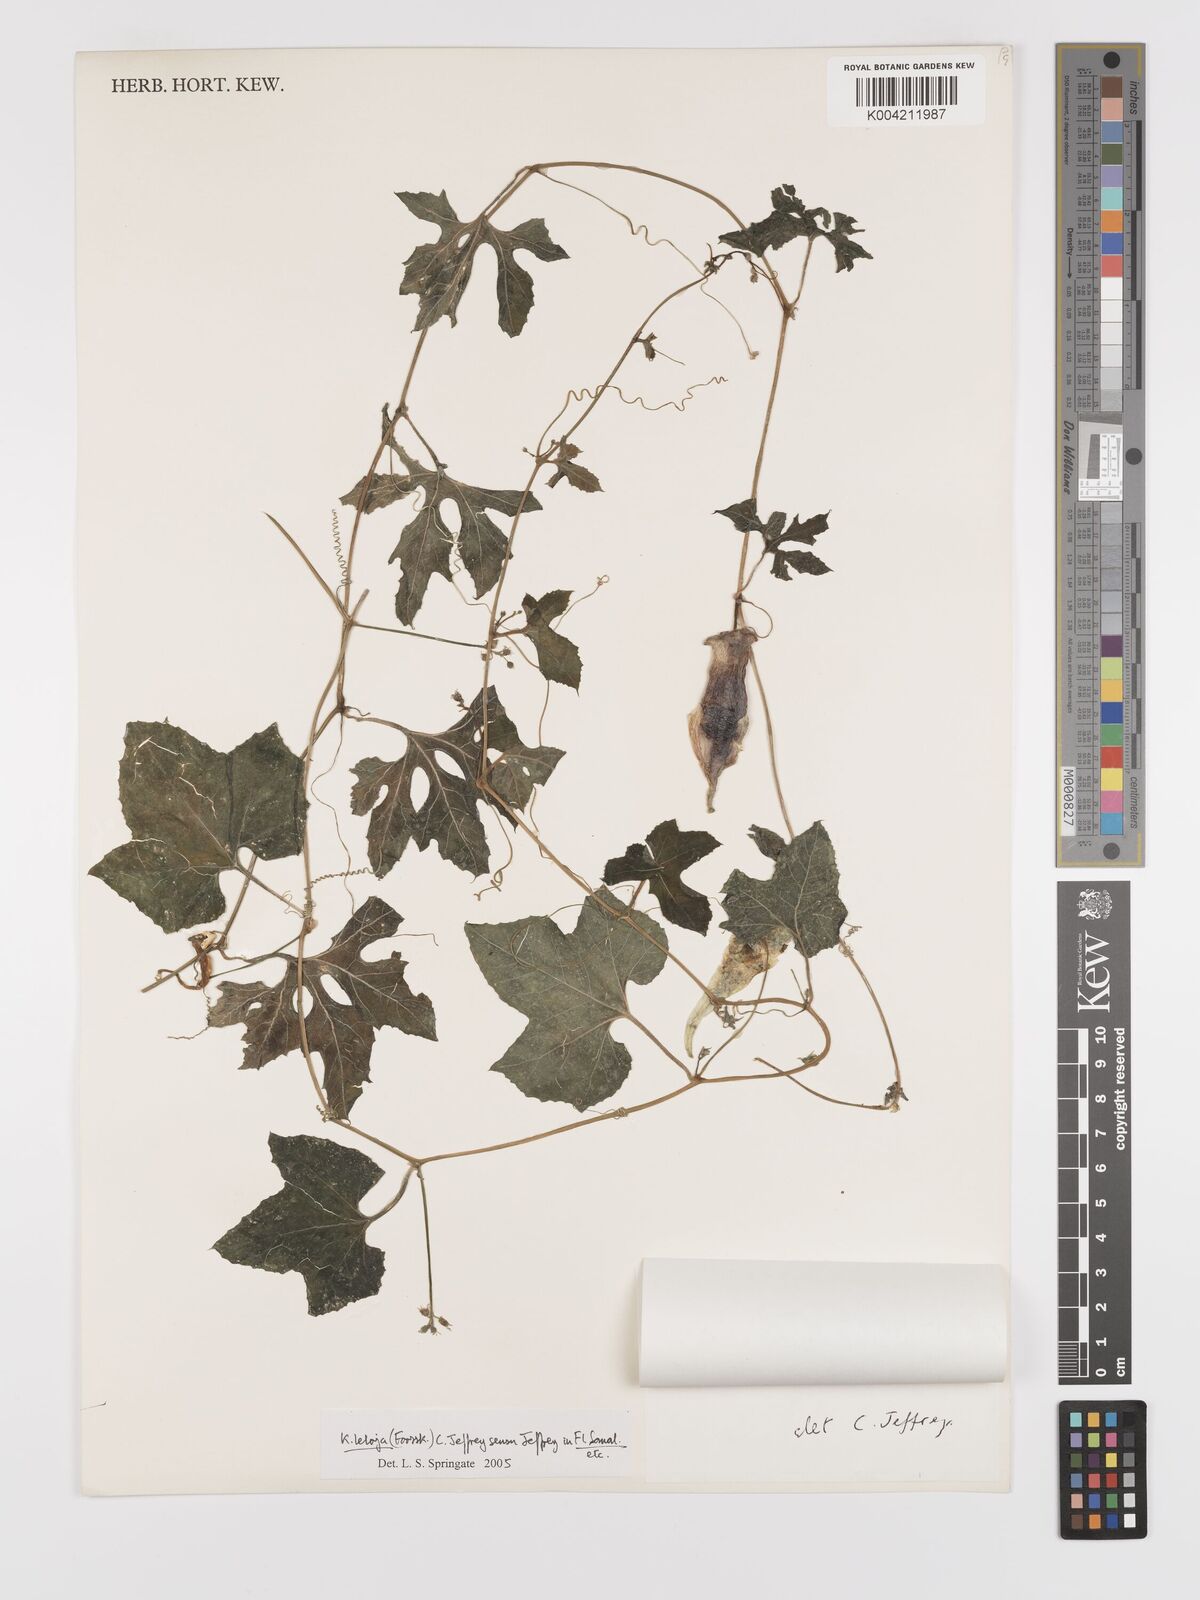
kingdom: Plantae
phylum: Tracheophyta
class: Magnoliopsida
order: Cucurbitales
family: Cucurbitaceae
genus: Kedrostis
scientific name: Kedrostis leloja
